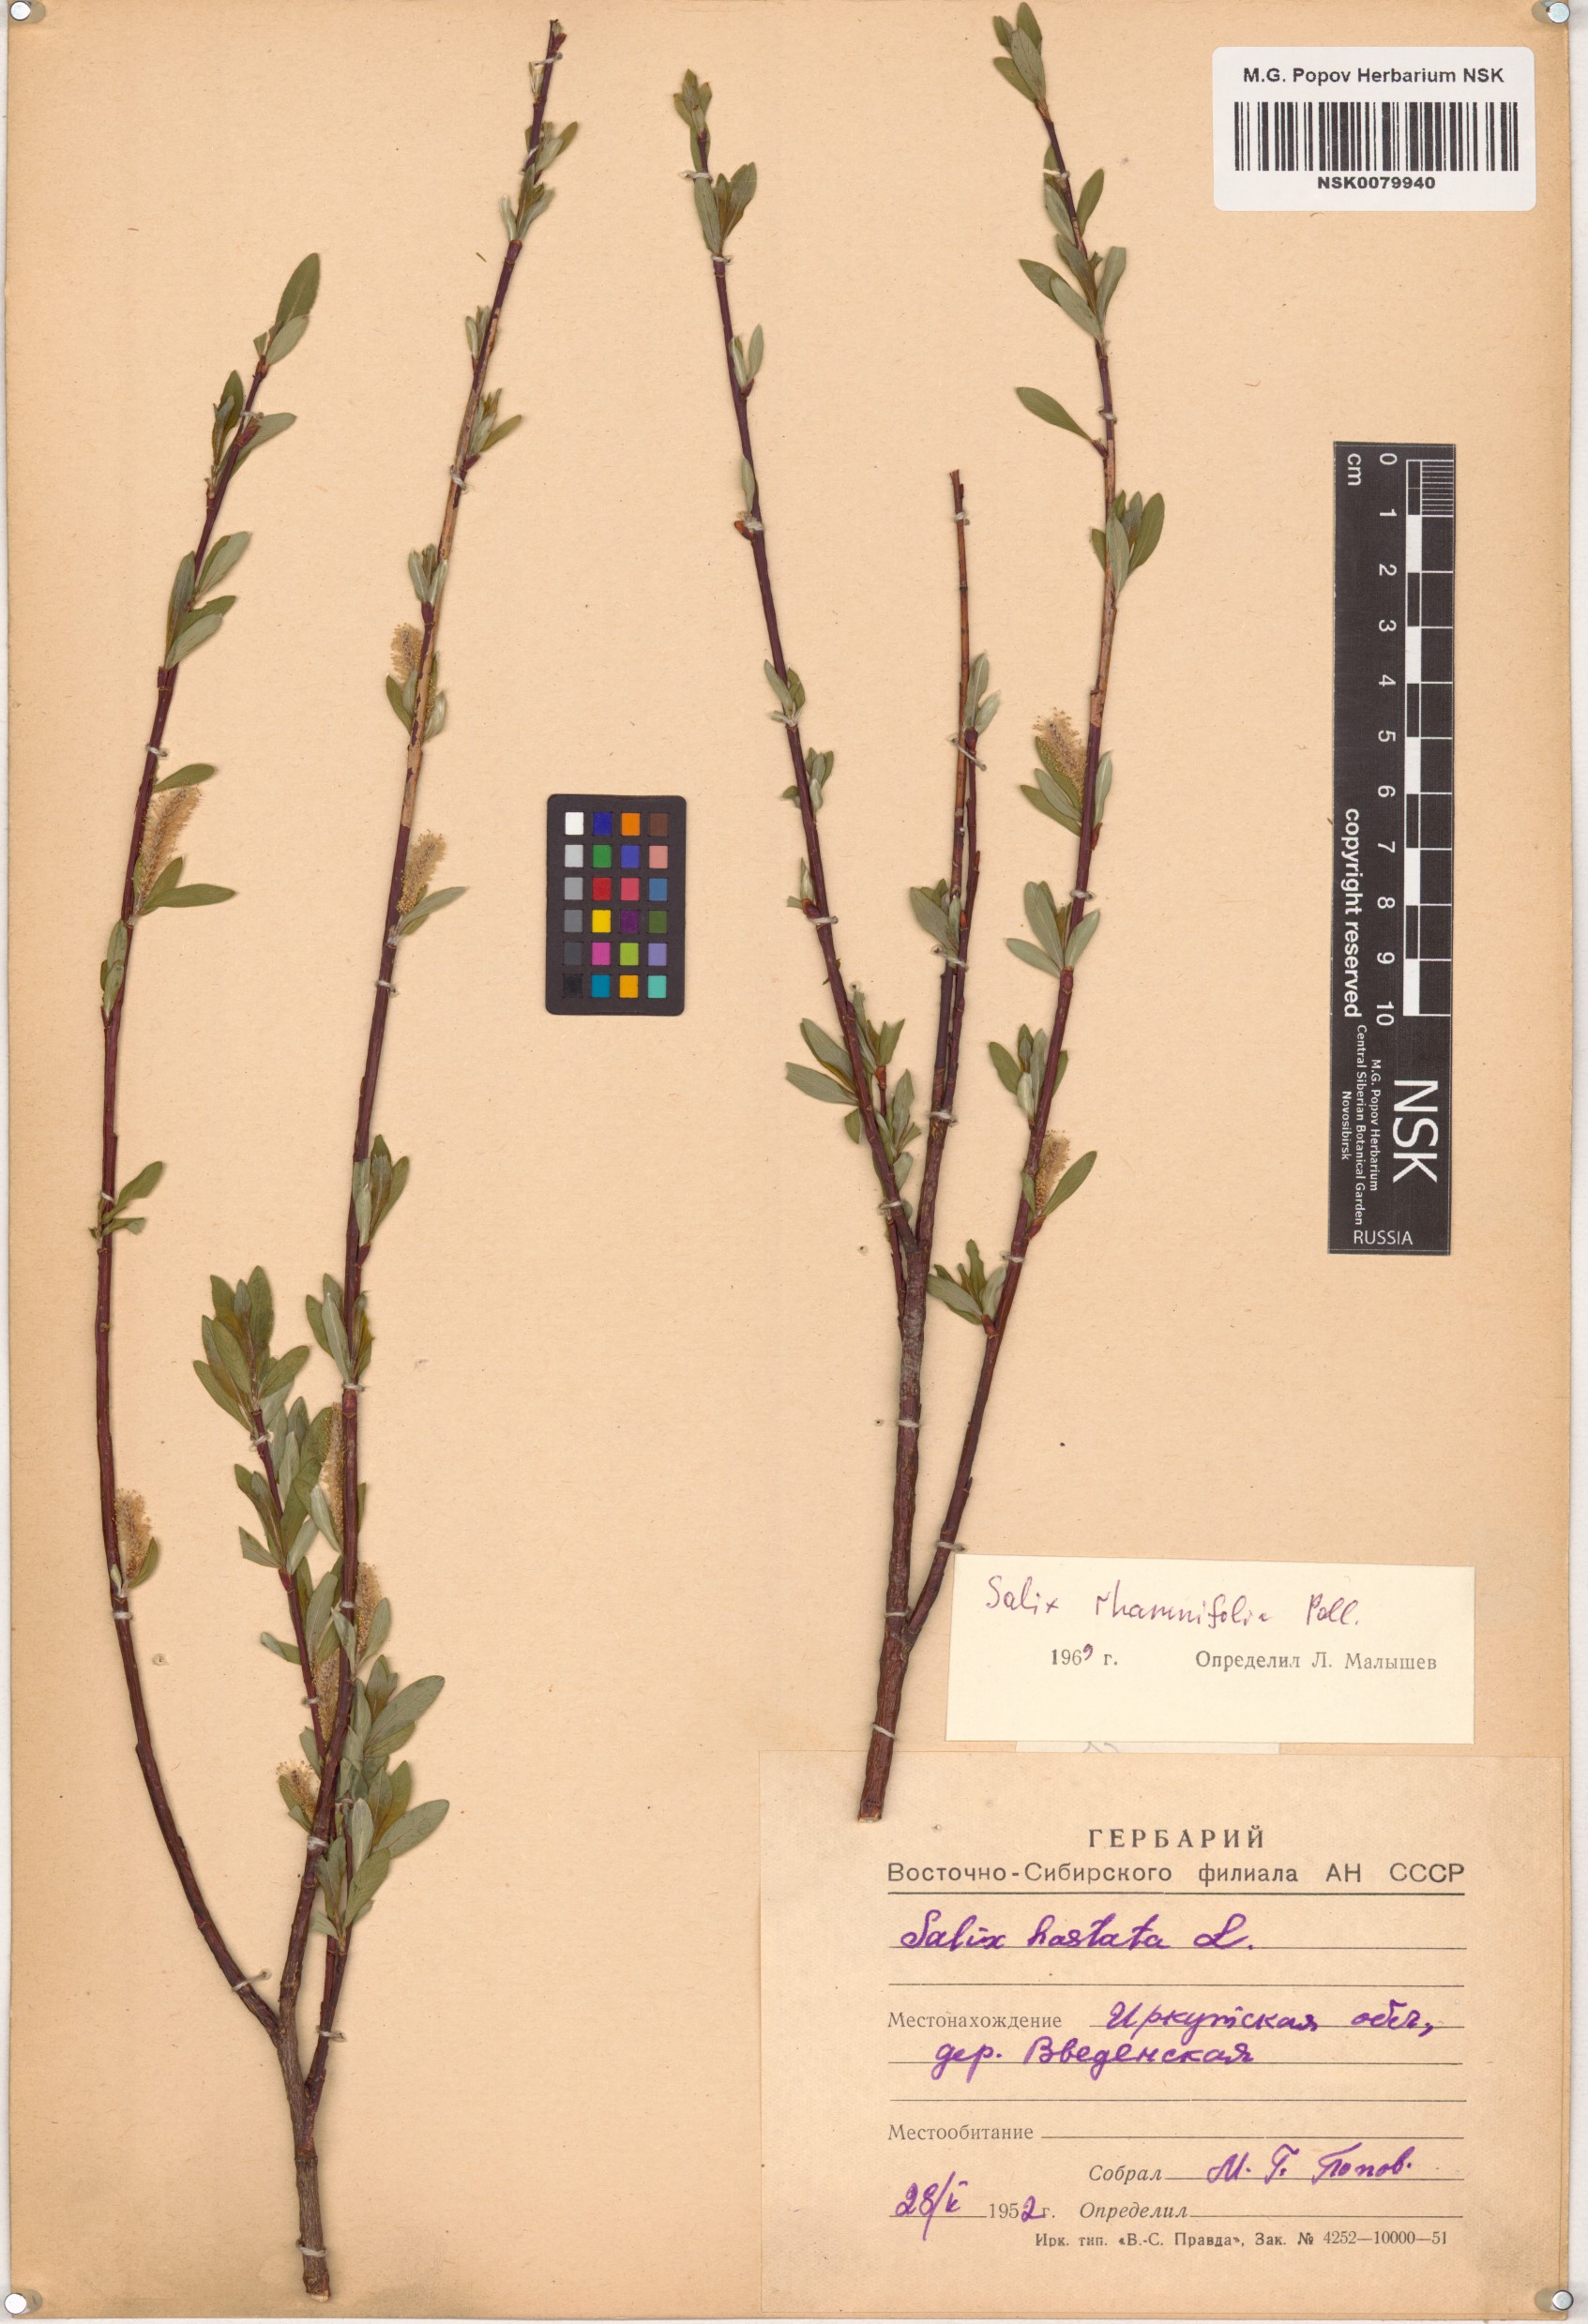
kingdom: Plantae
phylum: Tracheophyta
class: Magnoliopsida
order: Malpighiales
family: Salicaceae
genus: Salix
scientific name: Salix rhamnifolia
